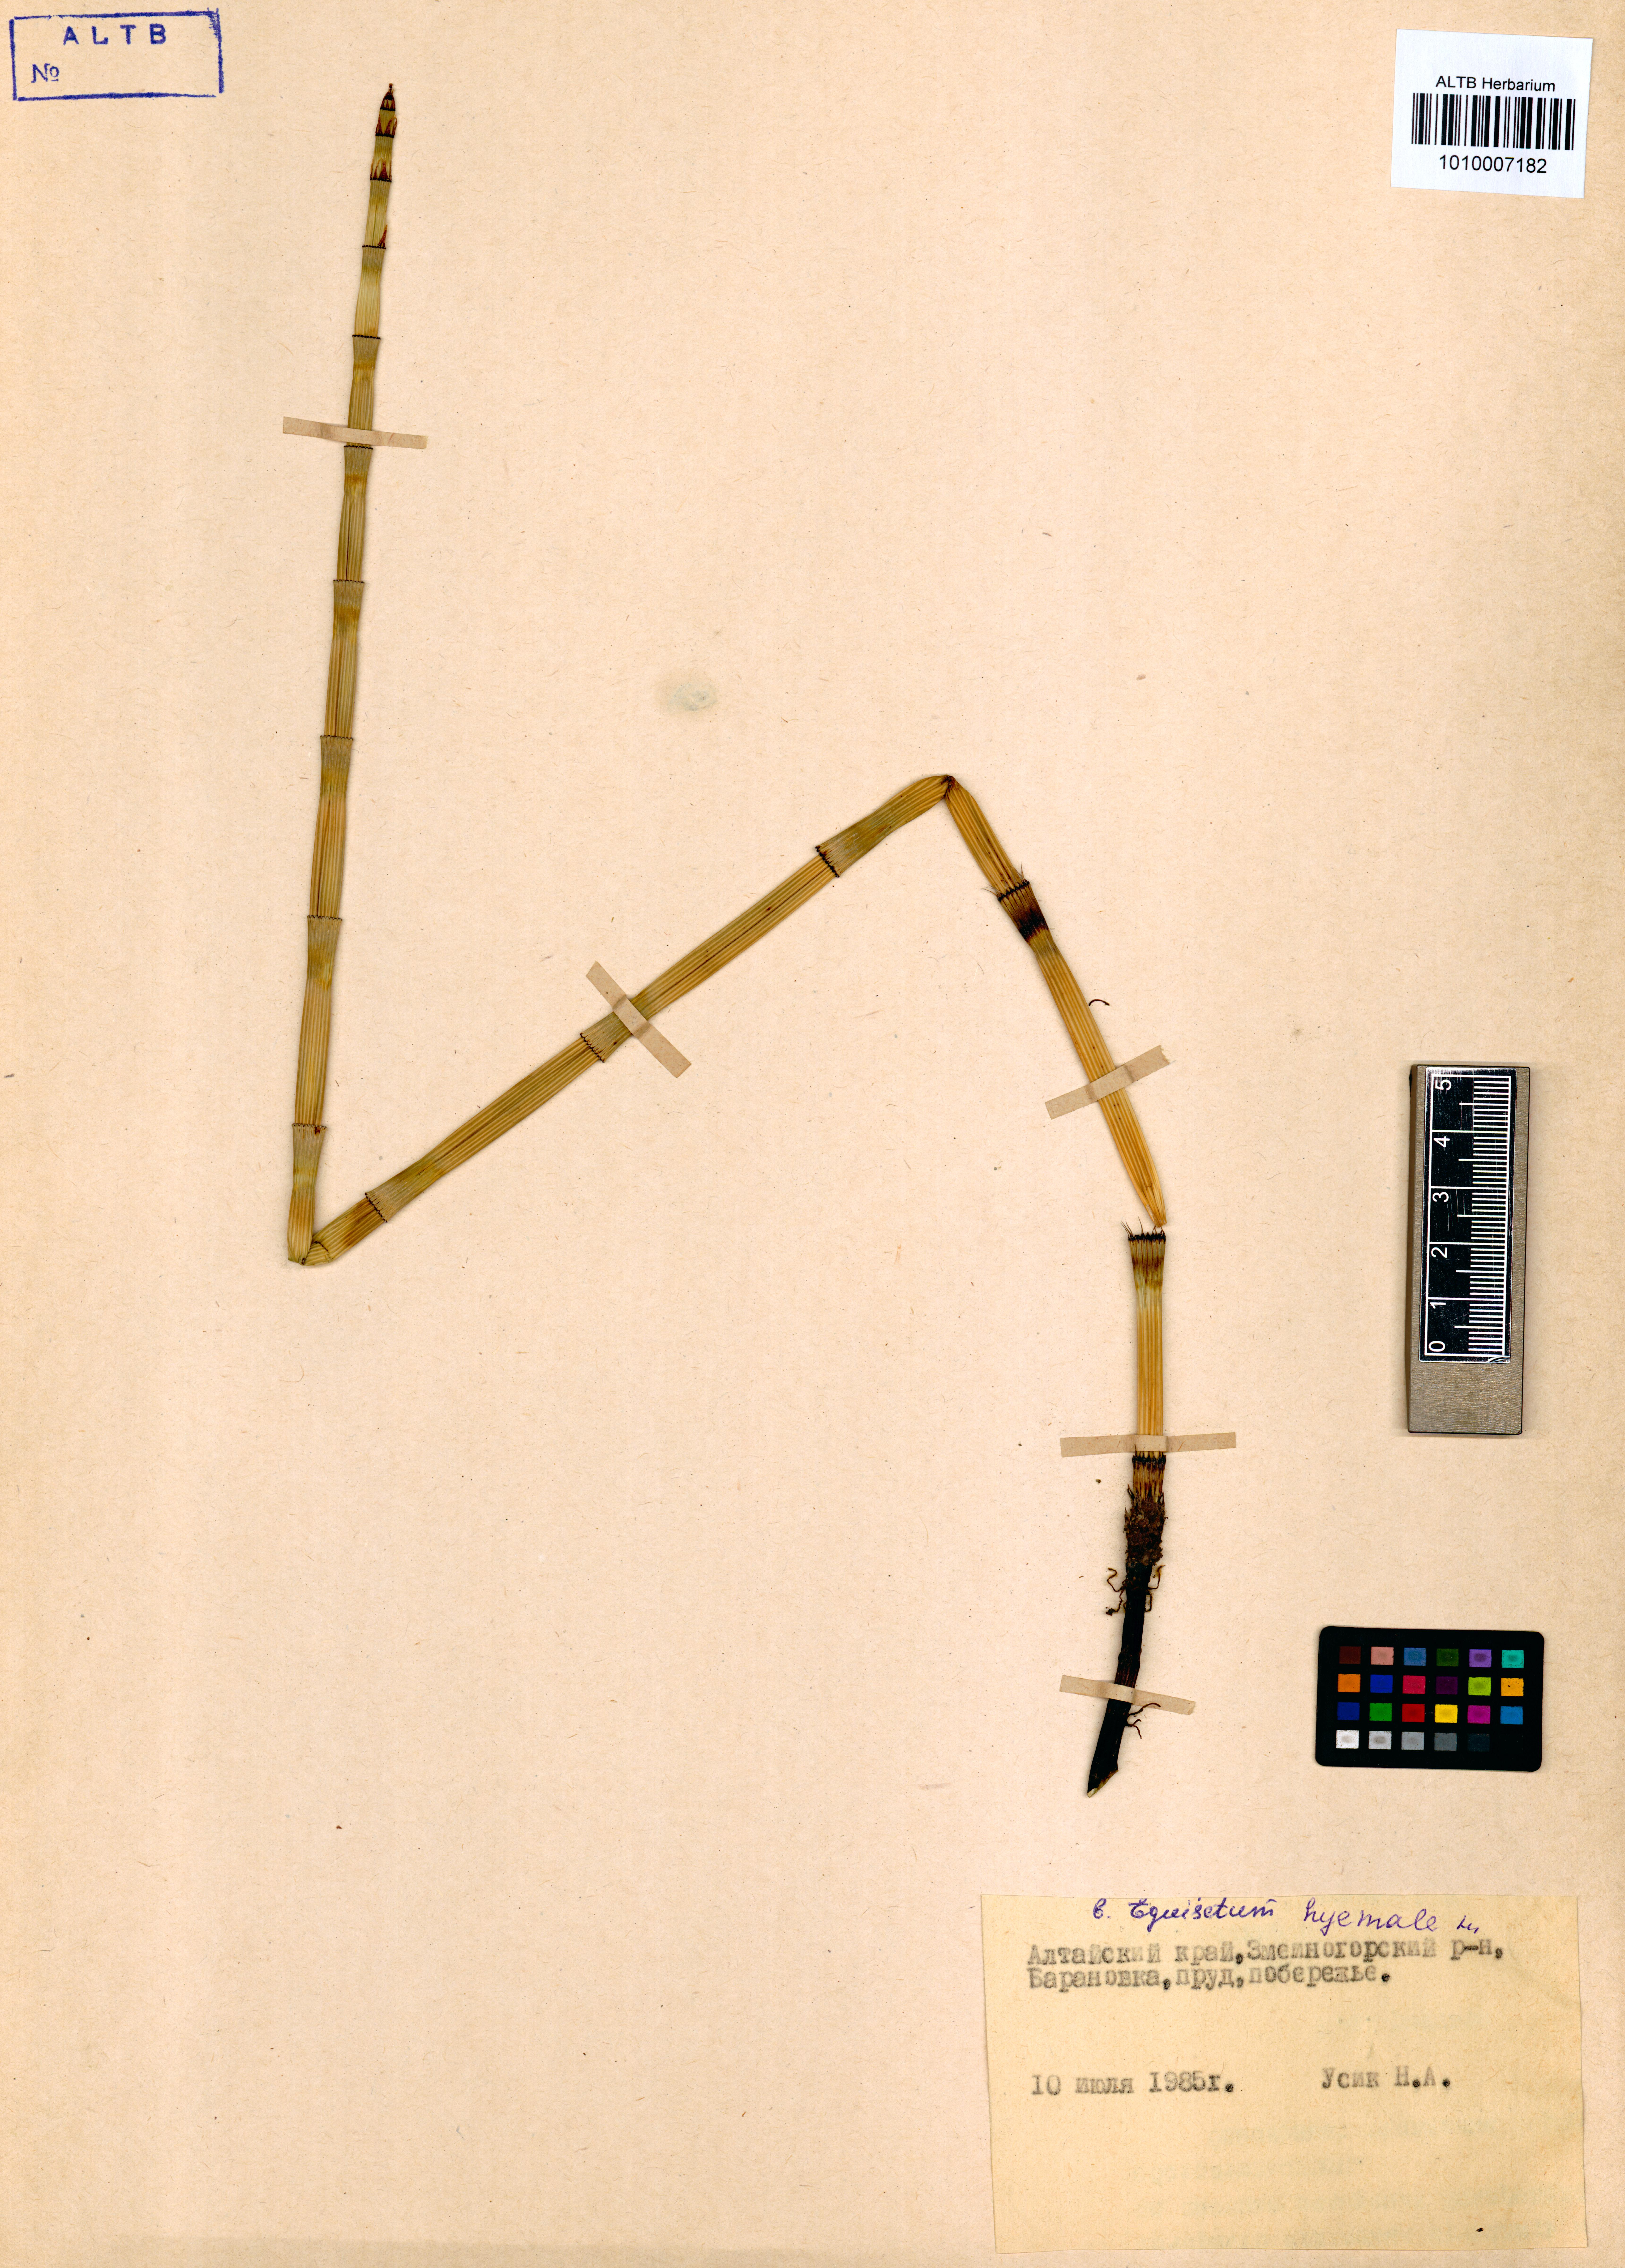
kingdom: Plantae
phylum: Tracheophyta
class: Polypodiopsida
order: Equisetales
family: Equisetaceae
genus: Equisetum
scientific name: Equisetum hyemale
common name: Rough horsetail
